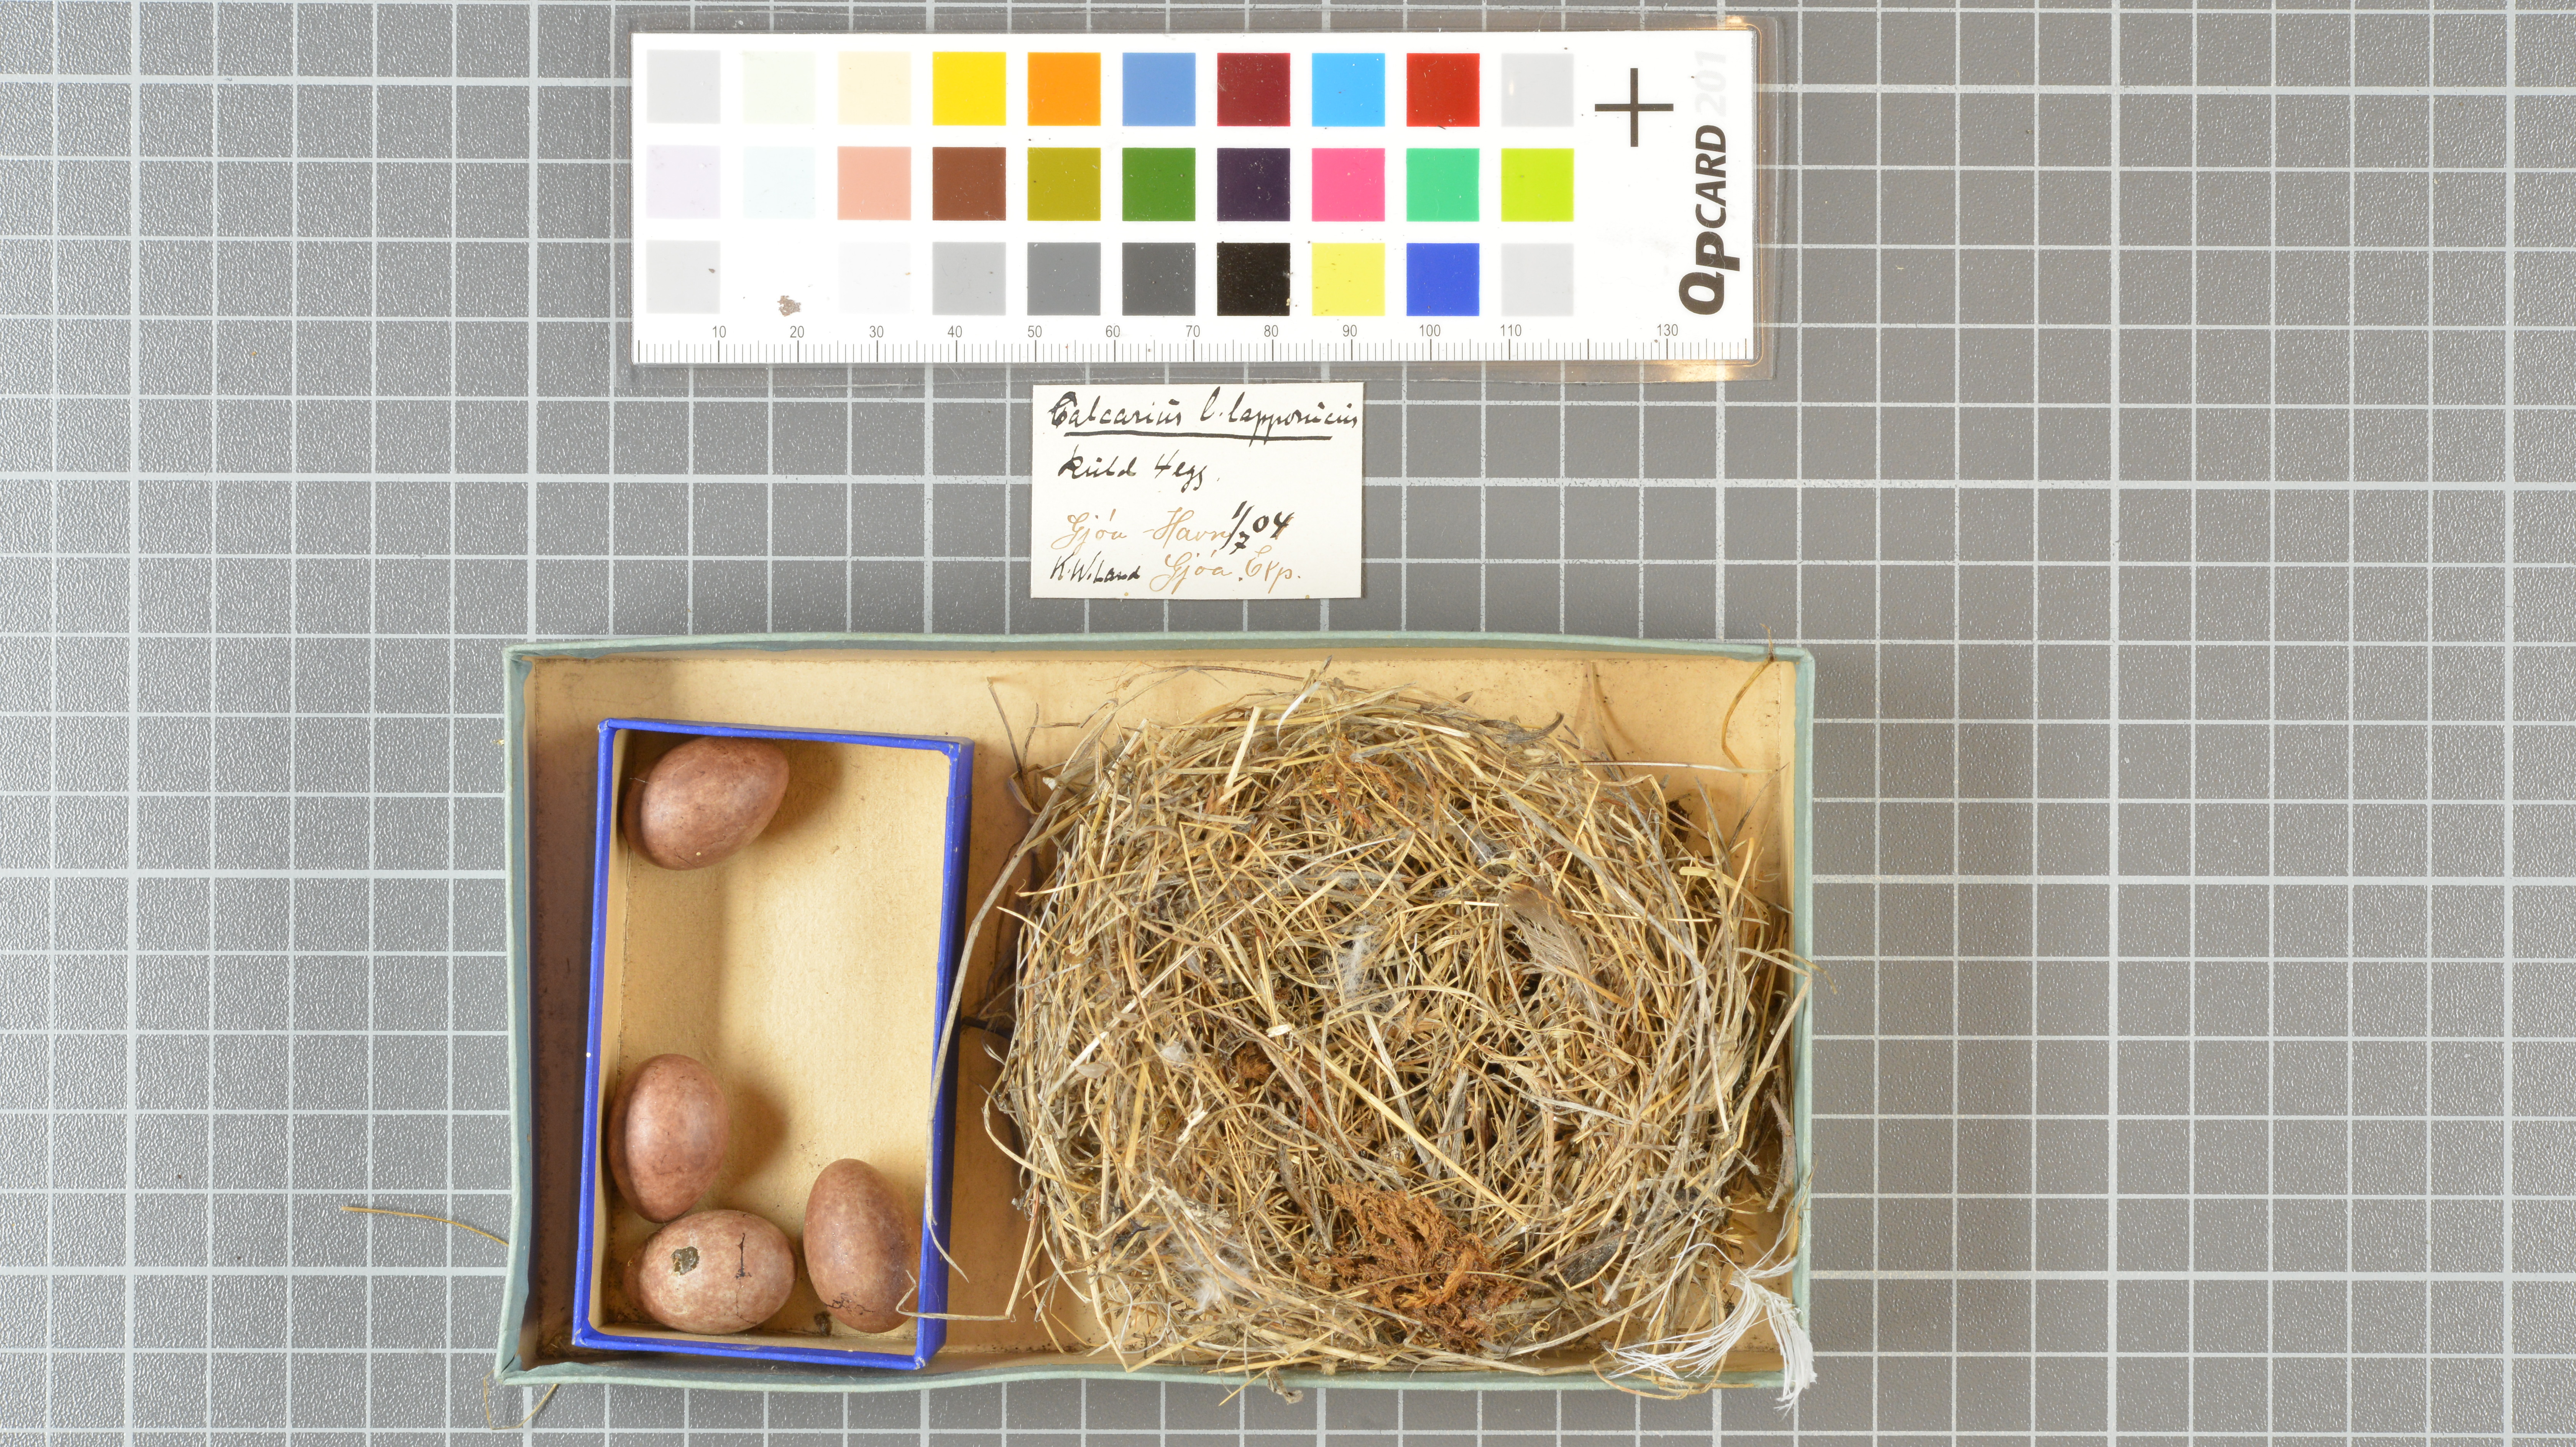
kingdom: Animalia
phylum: Chordata
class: Aves
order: Passeriformes
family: Calcariidae
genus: Calcarius
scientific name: Calcarius lapponicus
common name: Lapland longspur
